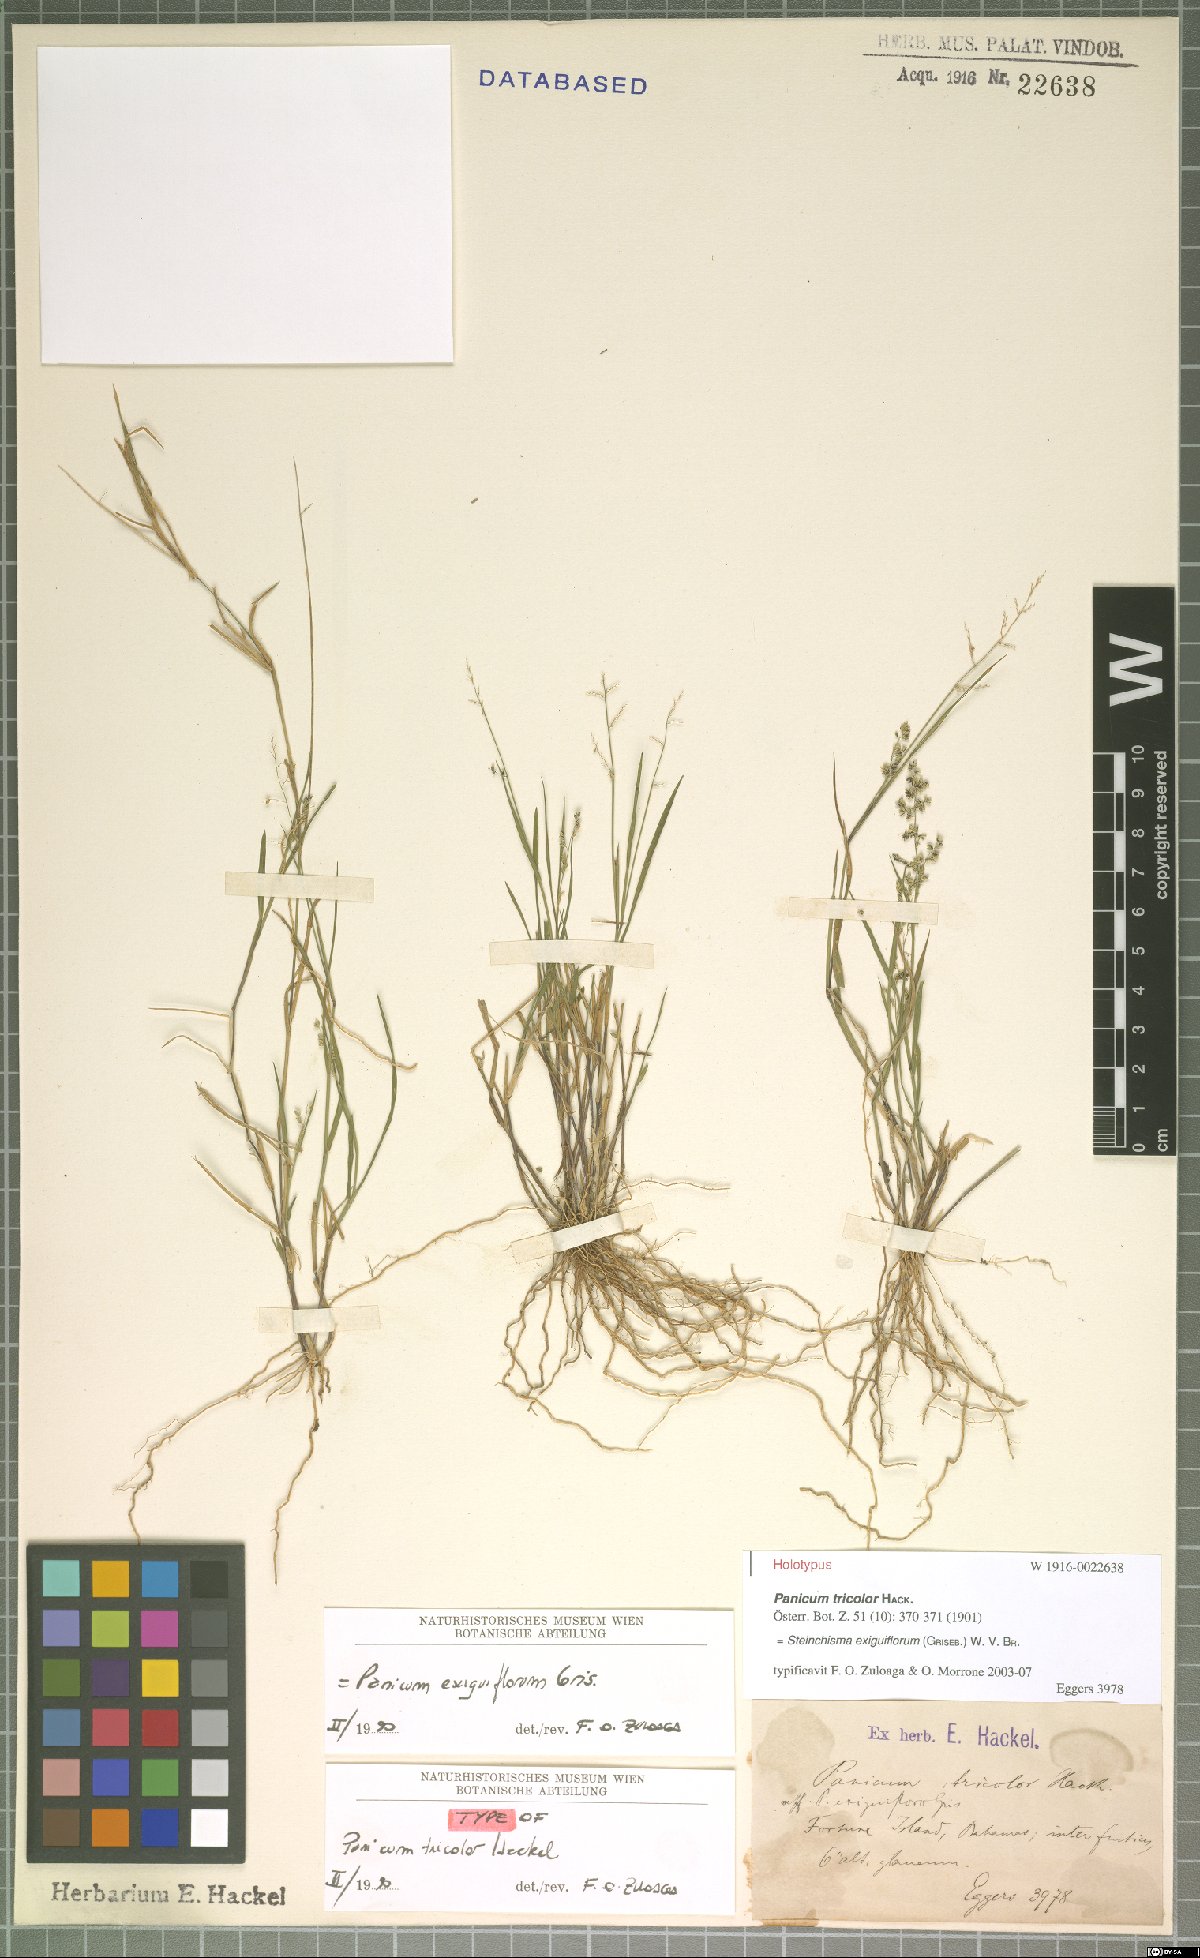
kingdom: Plantae
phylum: Tracheophyta
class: Liliopsida
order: Poales
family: Poaceae
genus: Steinchisma
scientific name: Steinchisma exiguiflorum
